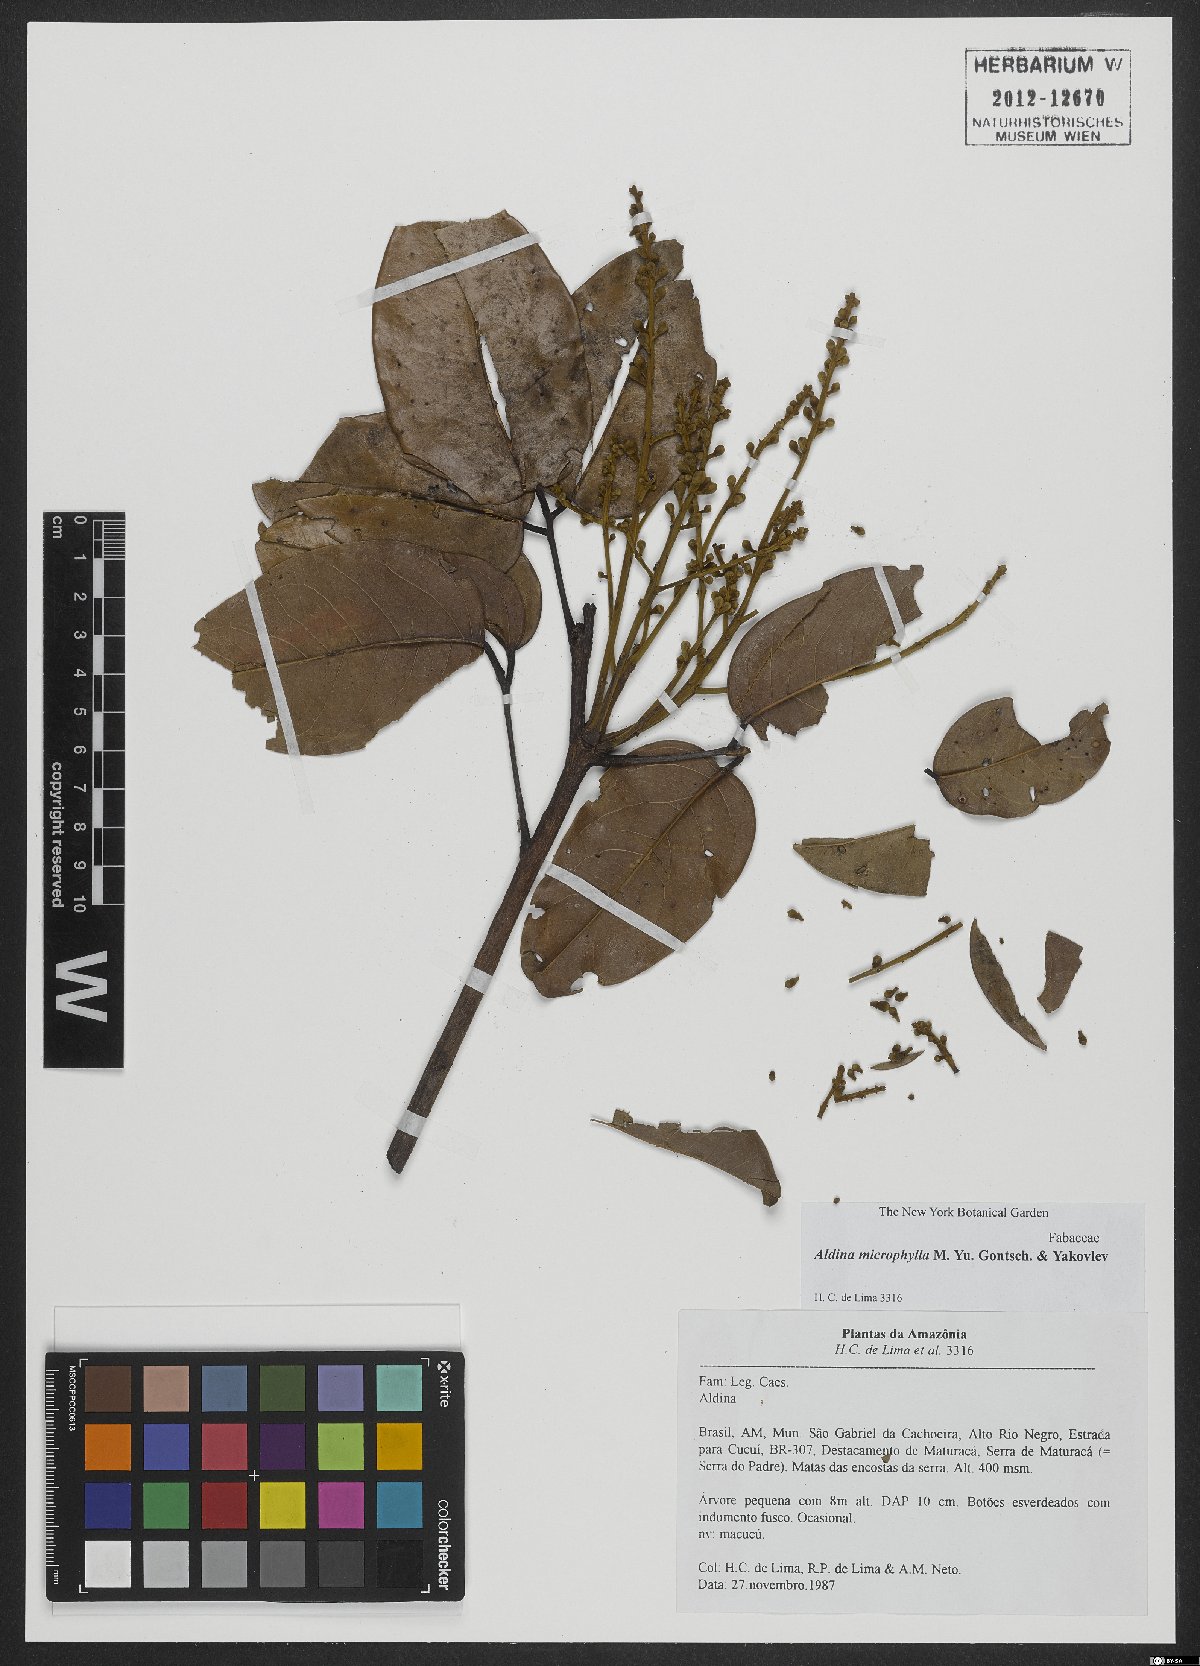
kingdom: Plantae
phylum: Tracheophyta
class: Magnoliopsida
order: Fabales
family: Fabaceae
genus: Aldina
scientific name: Aldina microphylla
